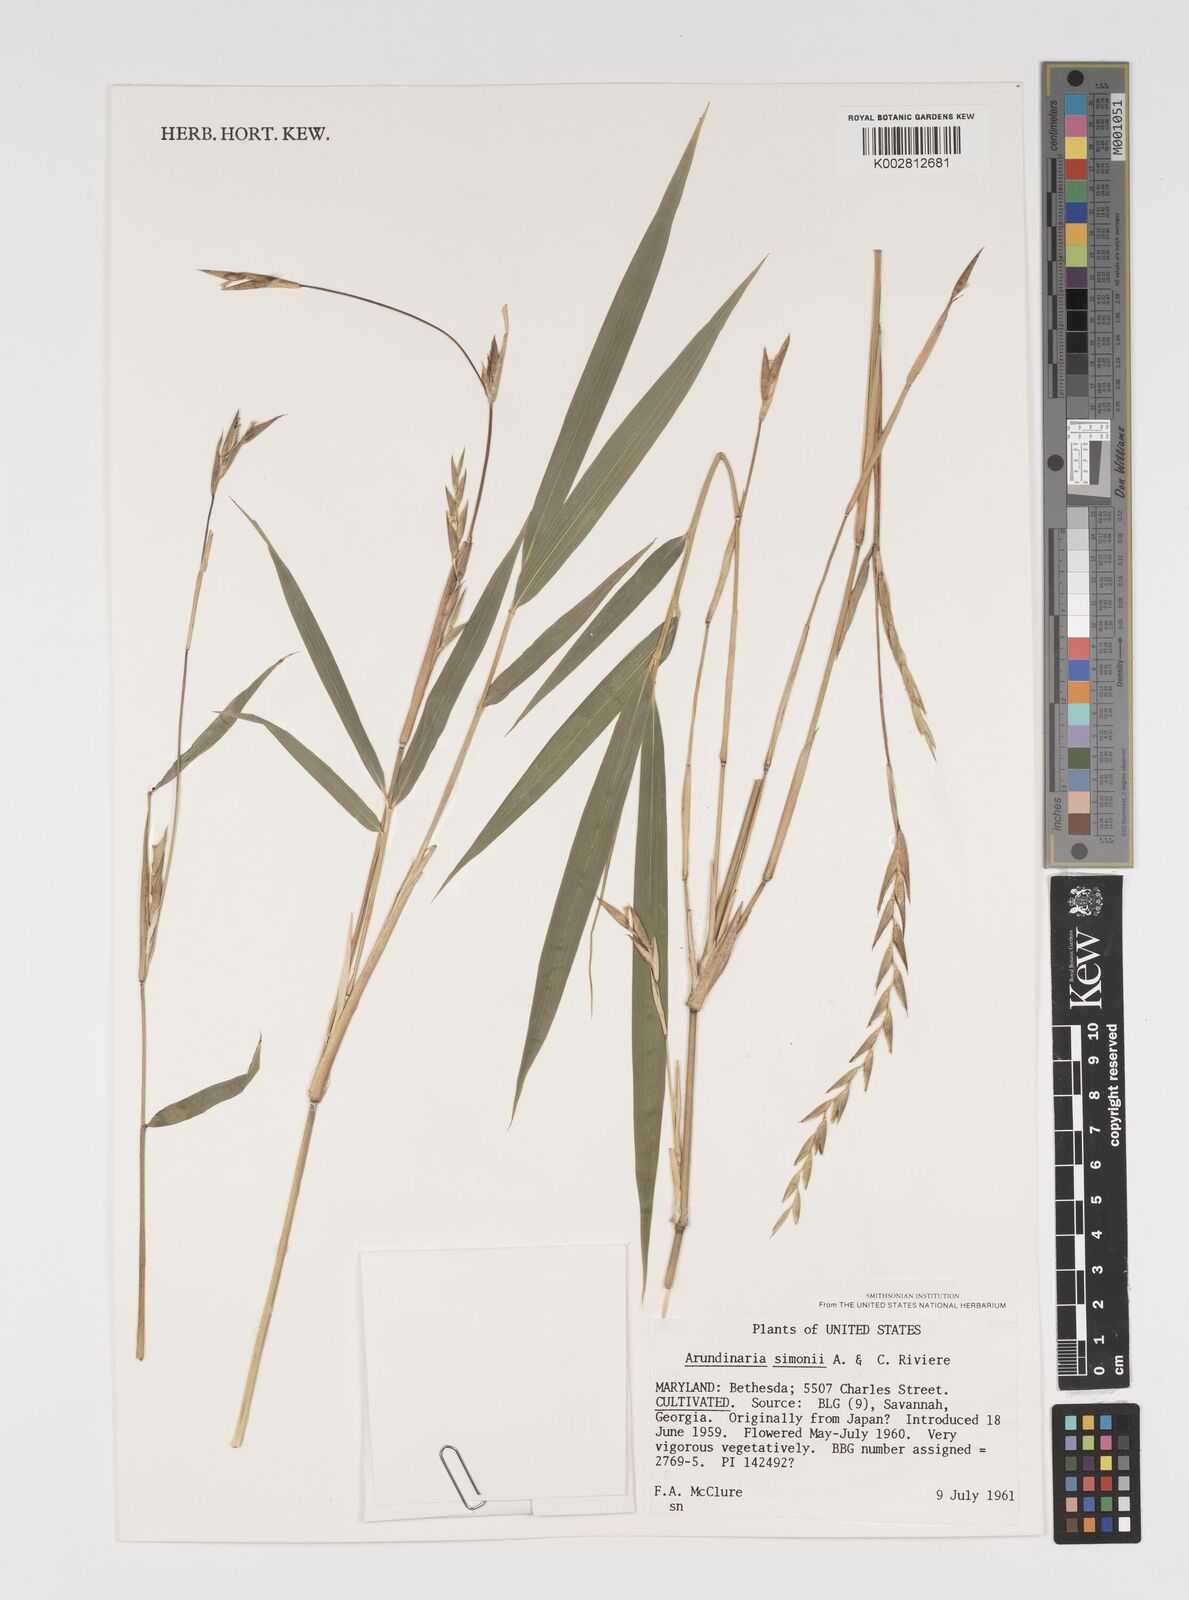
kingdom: Plantae
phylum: Tracheophyta
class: Liliopsida
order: Poales
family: Poaceae
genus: Pleioblastus
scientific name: Pleioblastus simonii
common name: Simon bamboo
